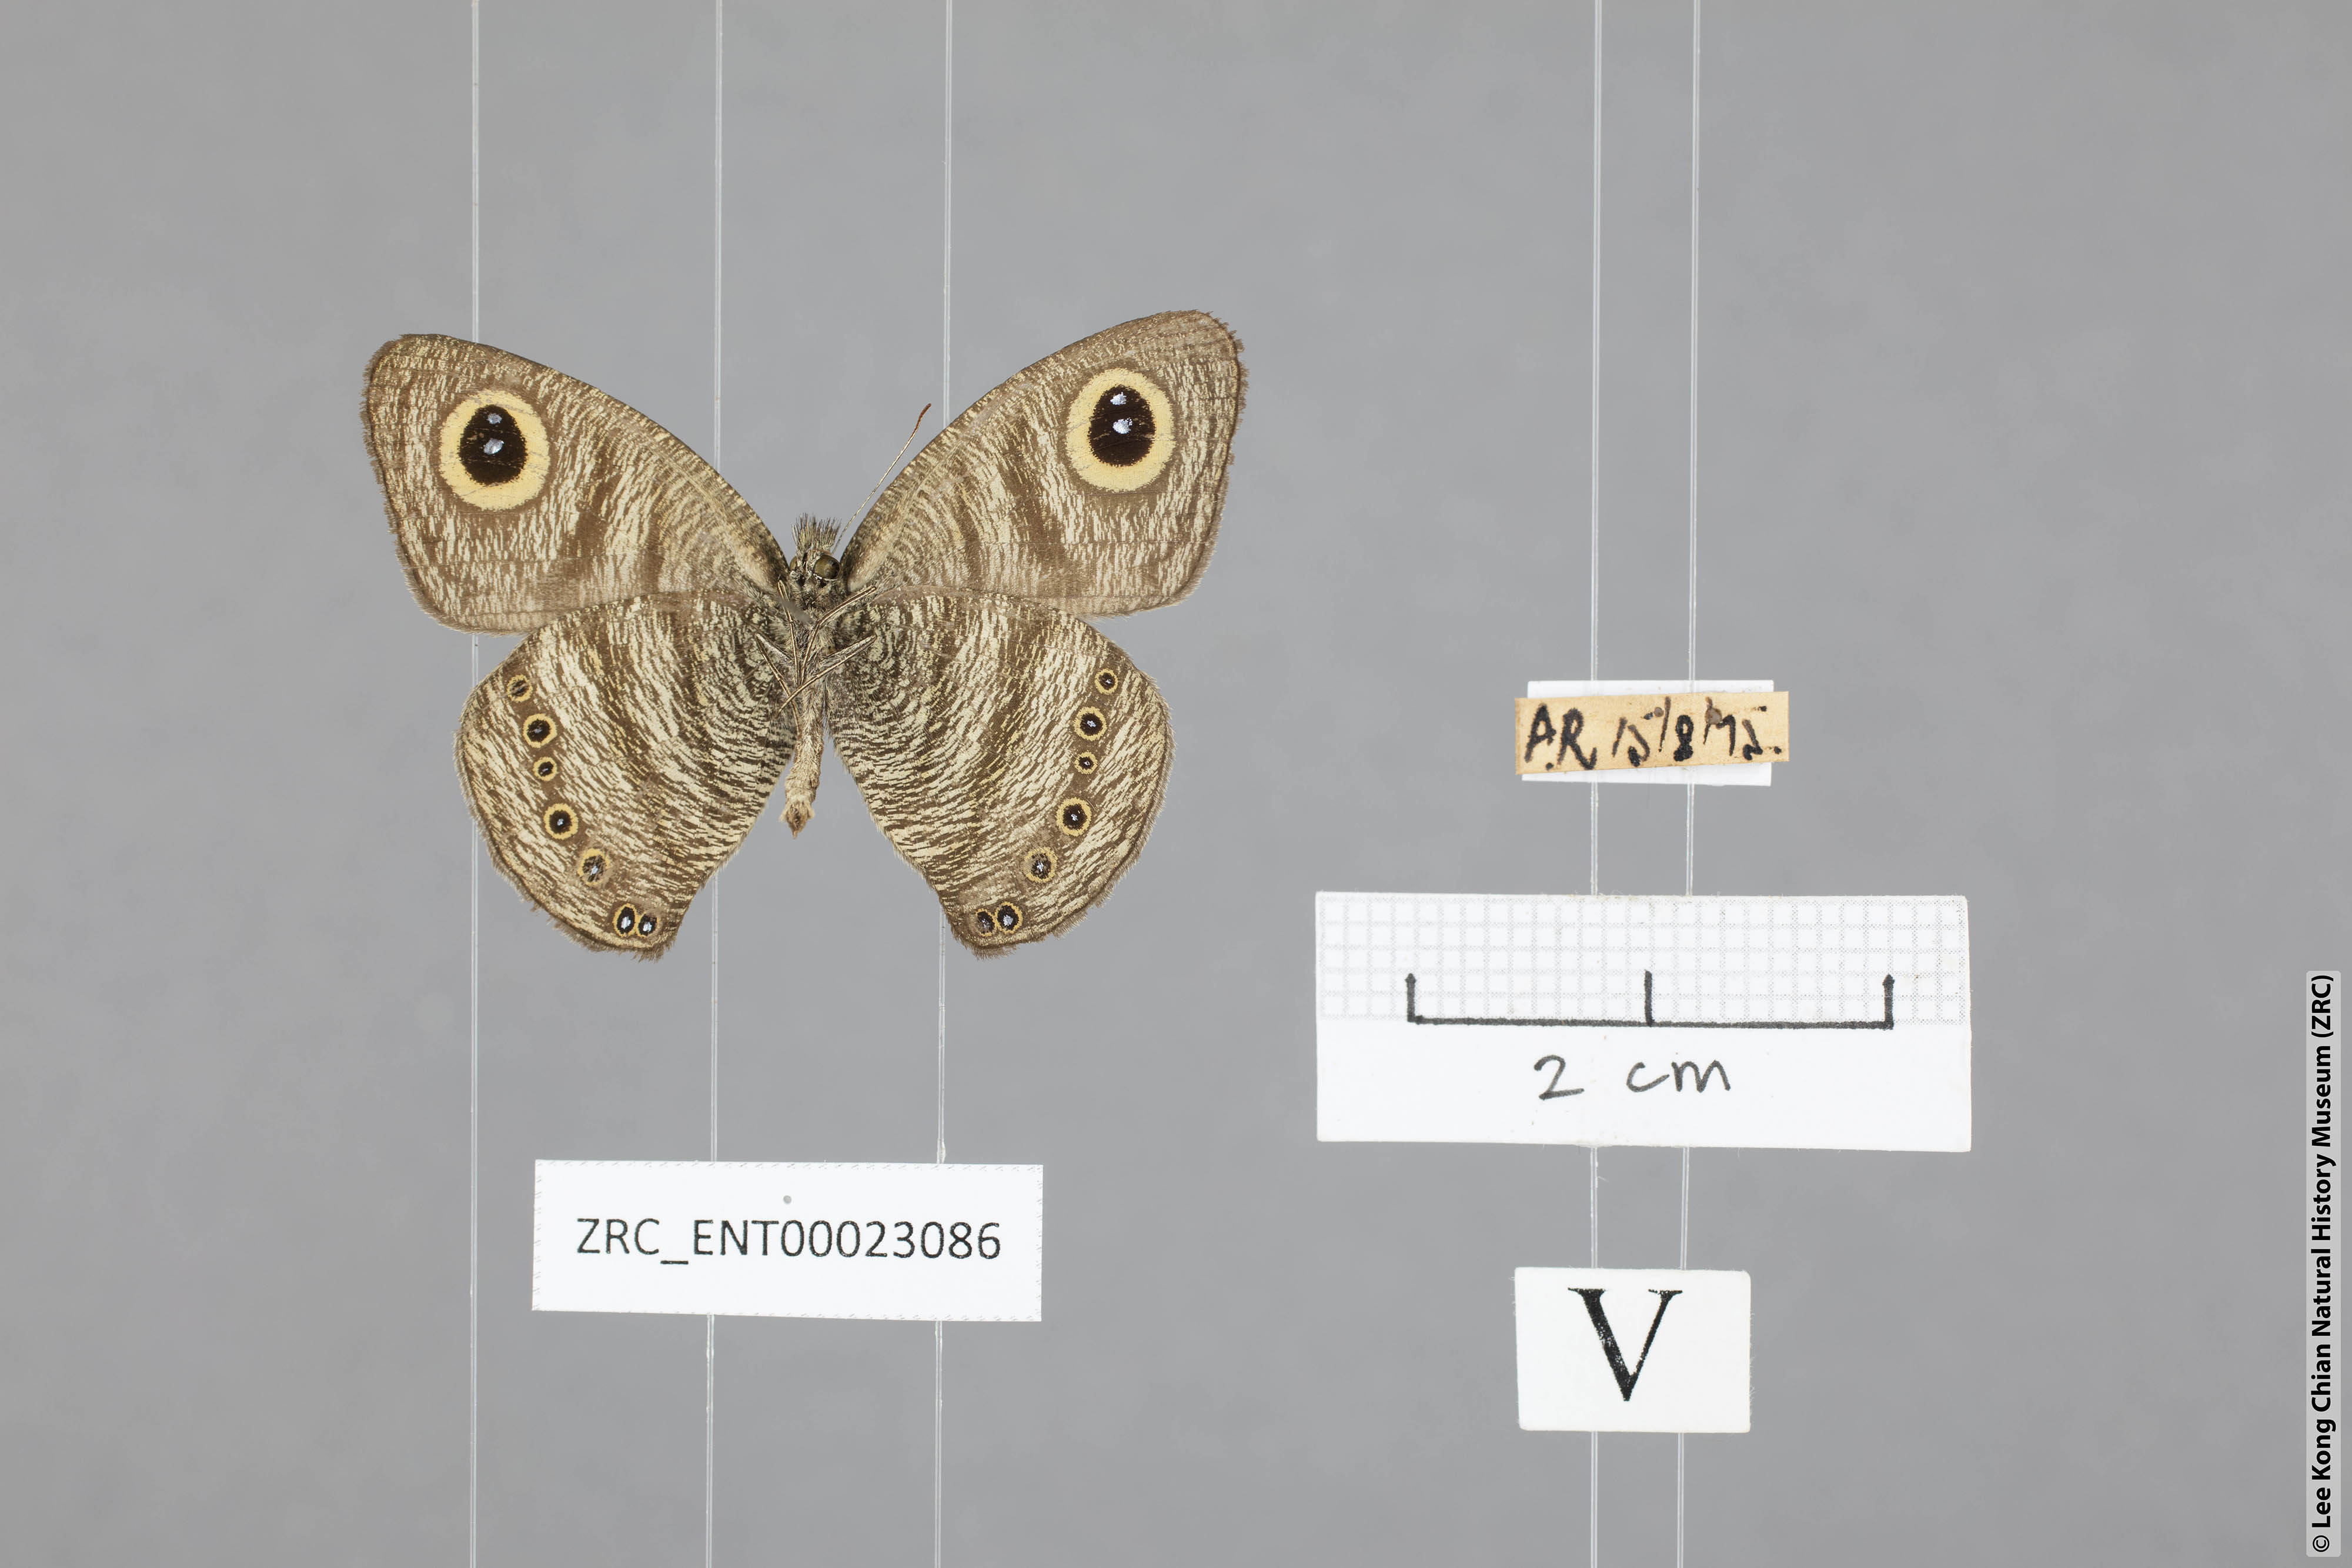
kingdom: Animalia
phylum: Arthropoda
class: Insecta
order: Lepidoptera
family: Nymphalidae
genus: Ypthima
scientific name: Ypthima fasciata
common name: Malayan six-ring
